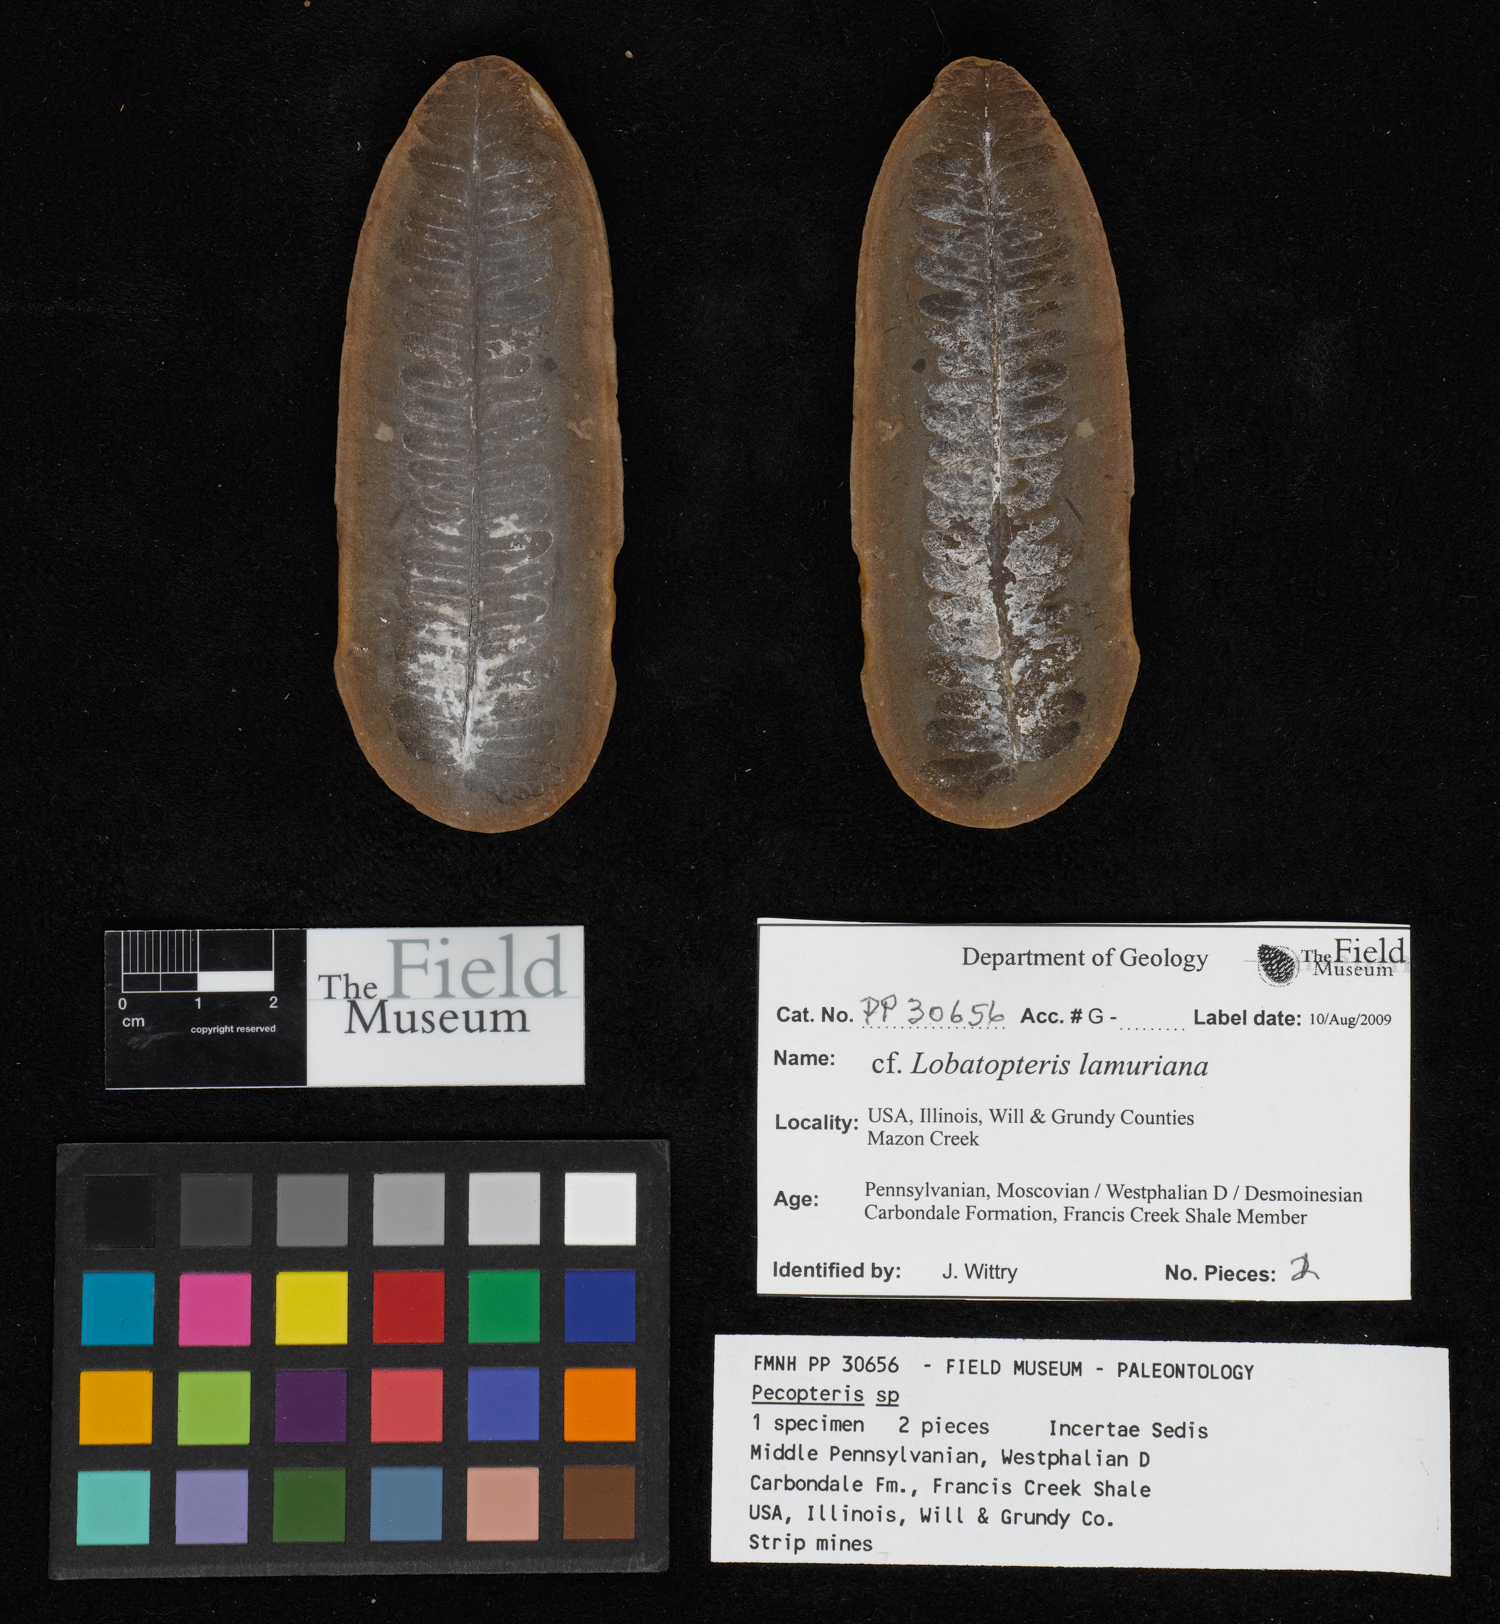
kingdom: Plantae
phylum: Tracheophyta
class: Polypodiopsida
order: Marattiales
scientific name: Marattiales
